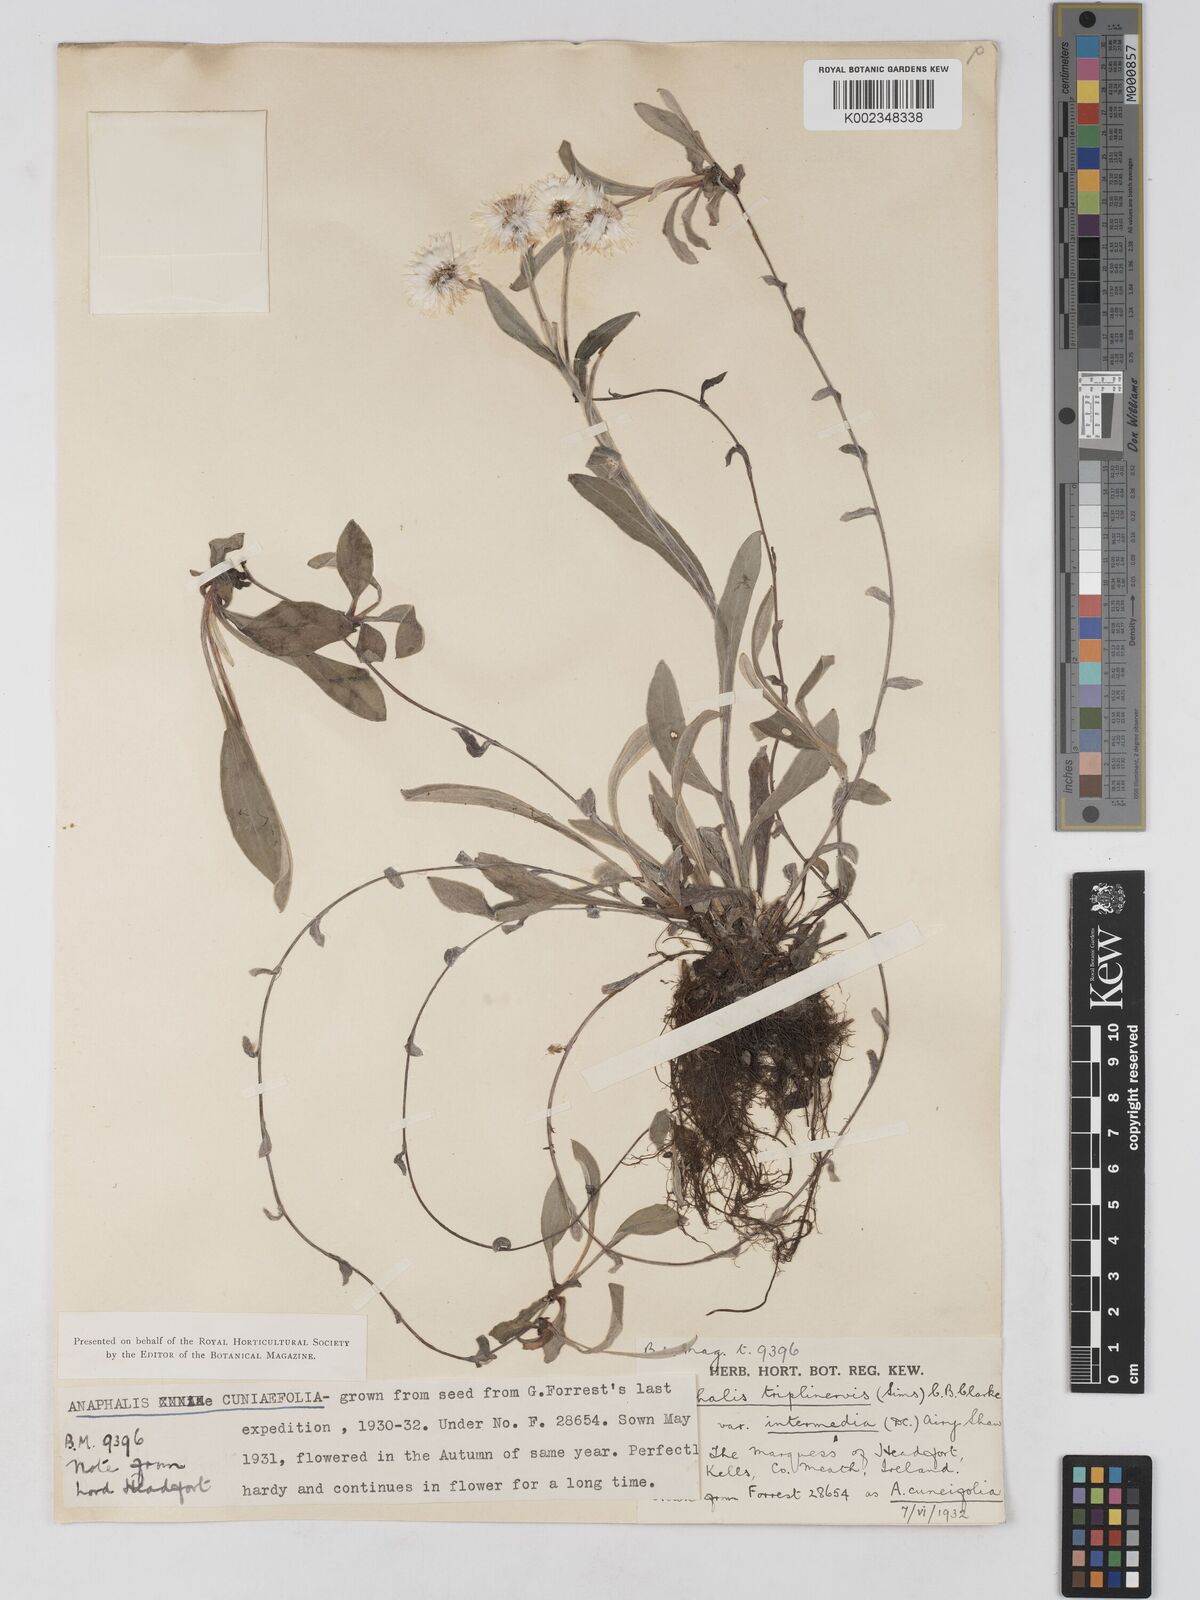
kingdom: Plantae
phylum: Tracheophyta
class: Magnoliopsida
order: Asterales
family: Asteraceae
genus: Anaphalis
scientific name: Anaphalis nepalensis
